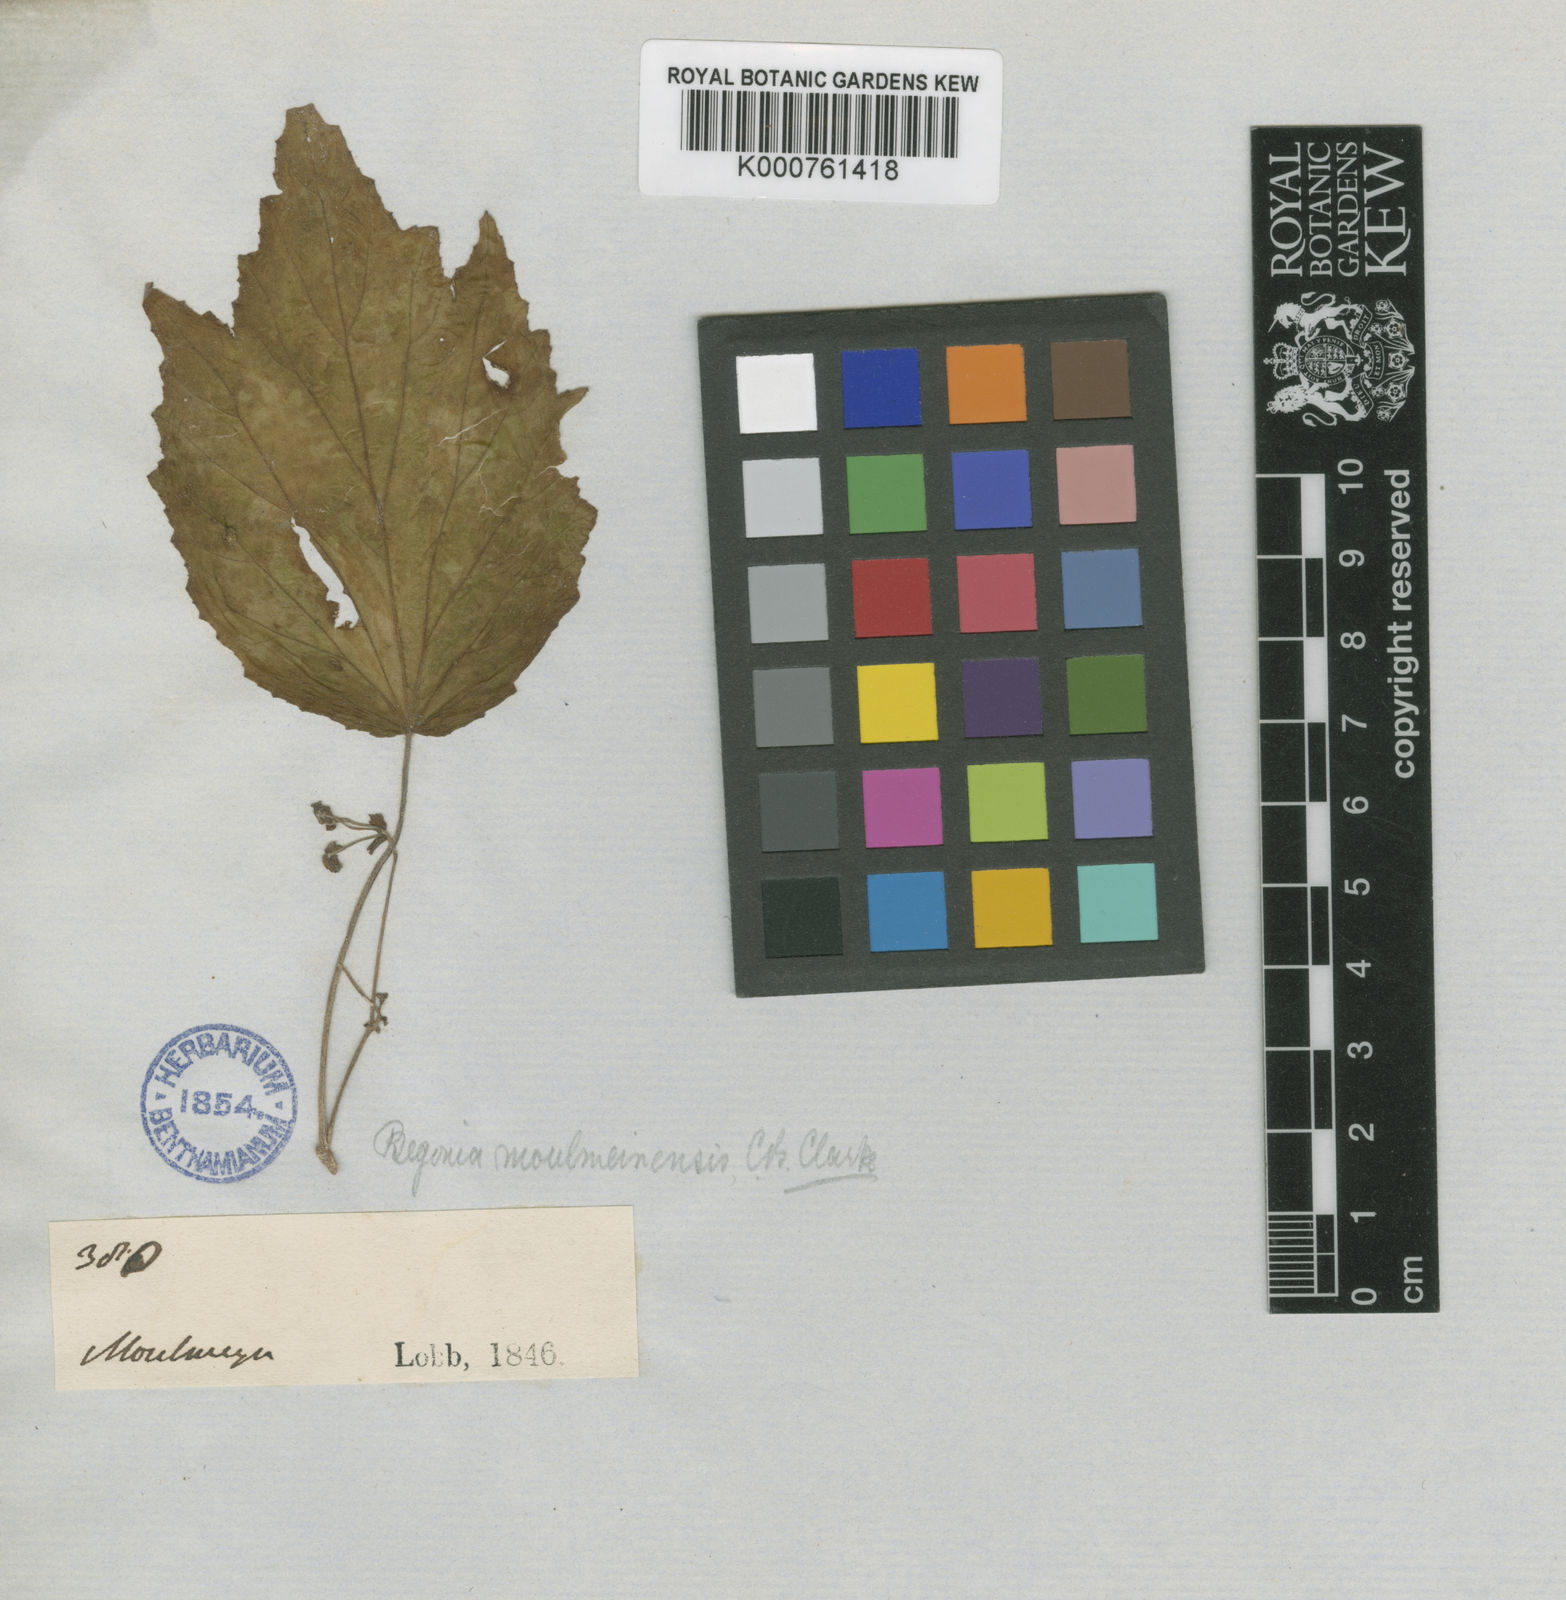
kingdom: Plantae
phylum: Tracheophyta
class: Magnoliopsida
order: Cucurbitales
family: Begoniaceae
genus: Begonia
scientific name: Begonia parvuliflora
